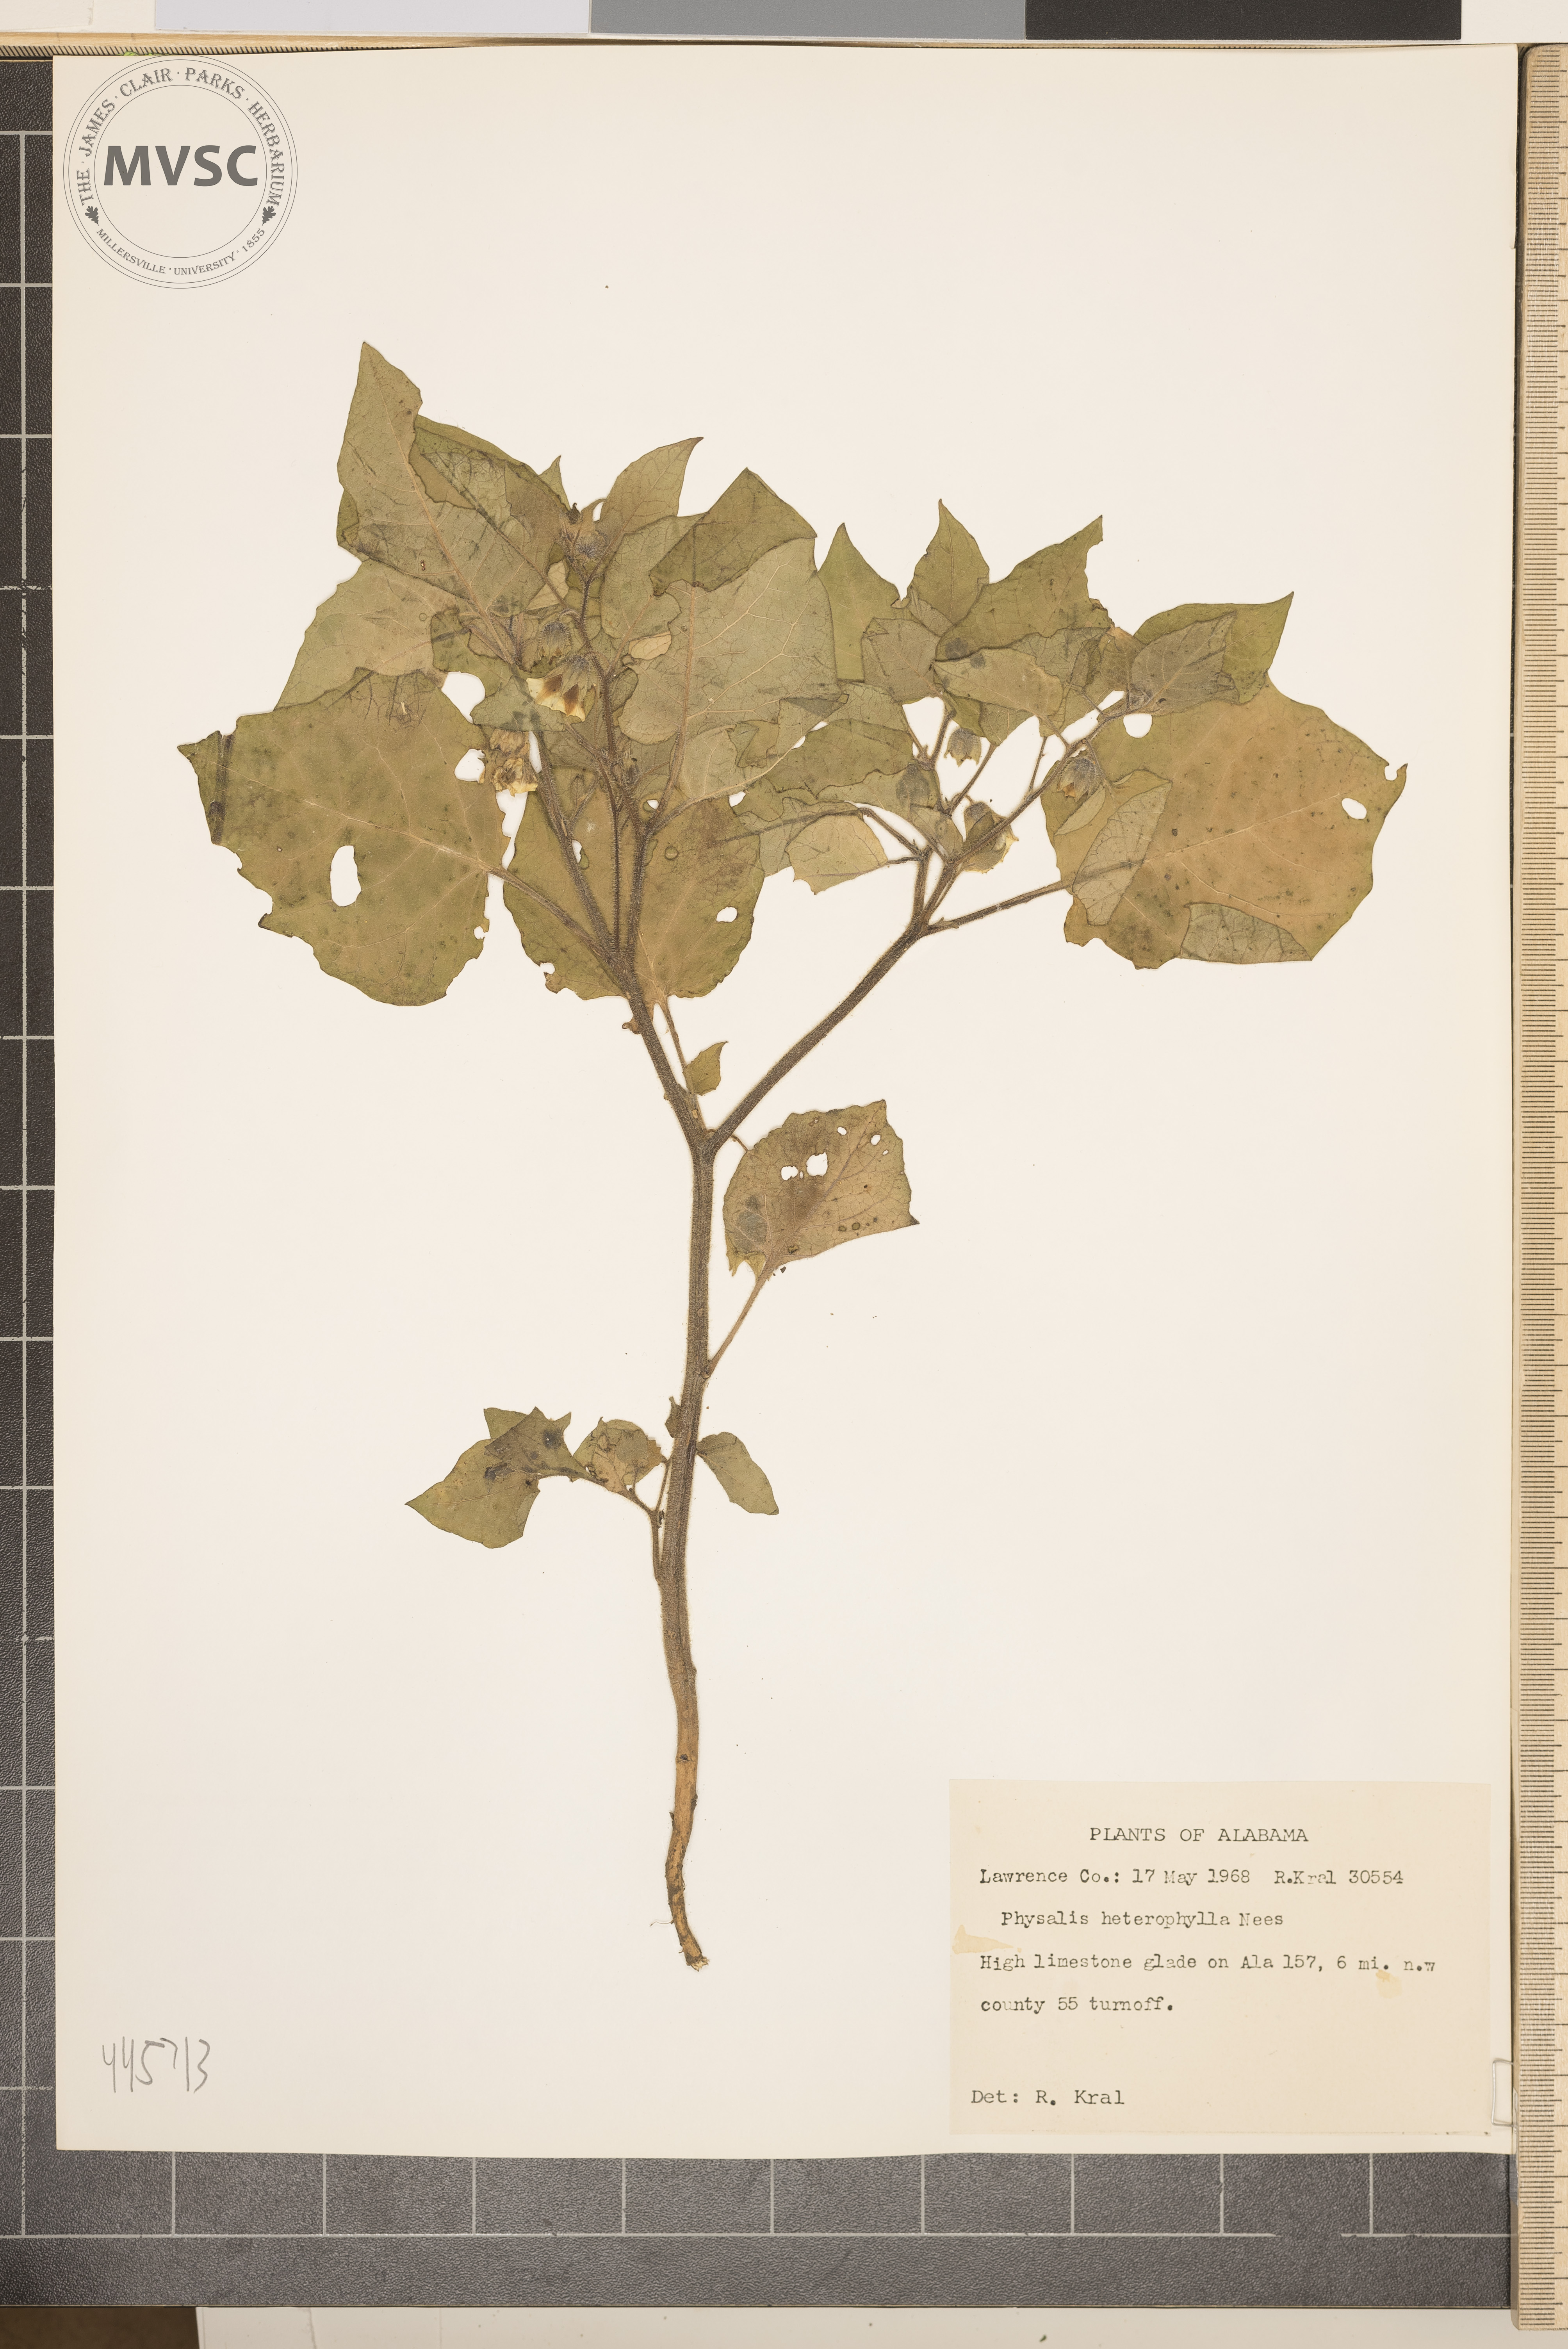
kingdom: Plantae
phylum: Tracheophyta
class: Magnoliopsida
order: Solanales
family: Solanaceae
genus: Physalis
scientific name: Physalis heterophylla
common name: Clammy ground-cherry
